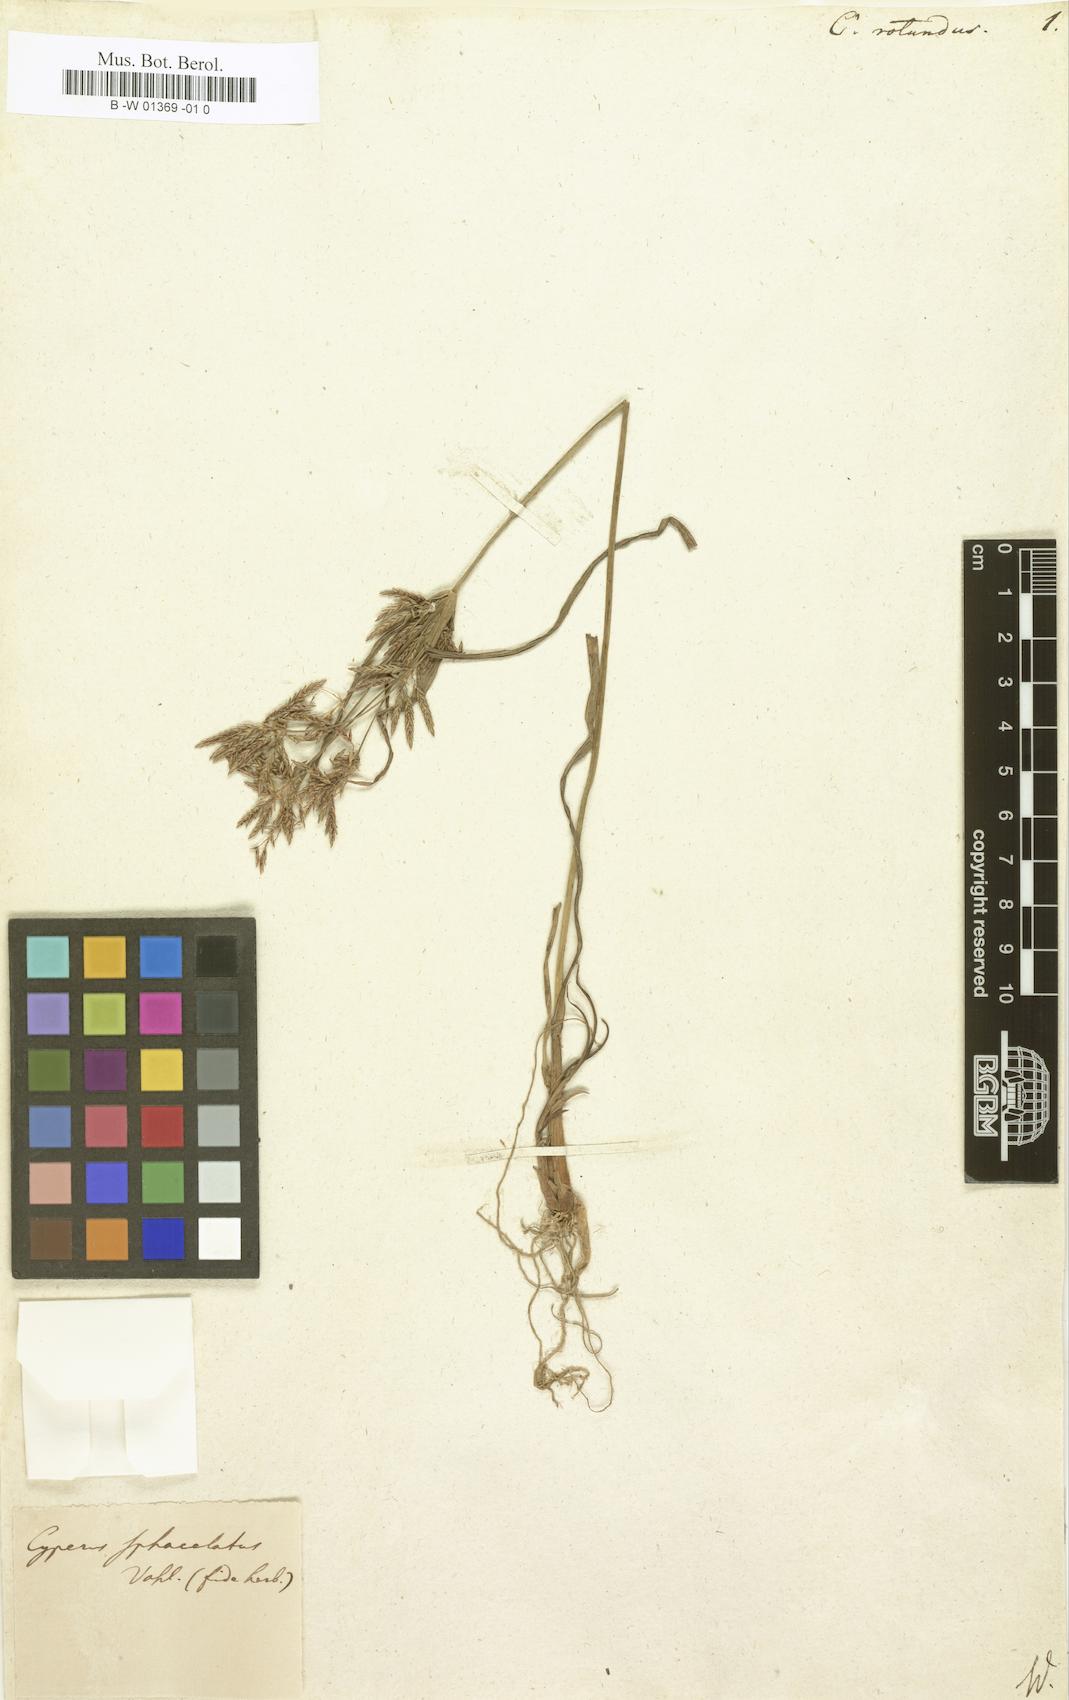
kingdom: Plantae
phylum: Tracheophyta
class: Liliopsida
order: Poales
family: Cyperaceae
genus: Cyperus
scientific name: Cyperus rotundus
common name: Nutgrass
